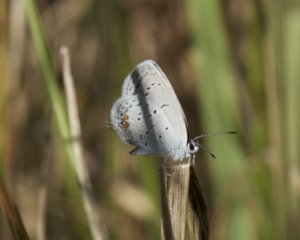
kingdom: Animalia
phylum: Arthropoda
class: Insecta
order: Lepidoptera
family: Lycaenidae
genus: Elkalyce
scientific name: Elkalyce comyntas
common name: Eastern Tailed-Blue
